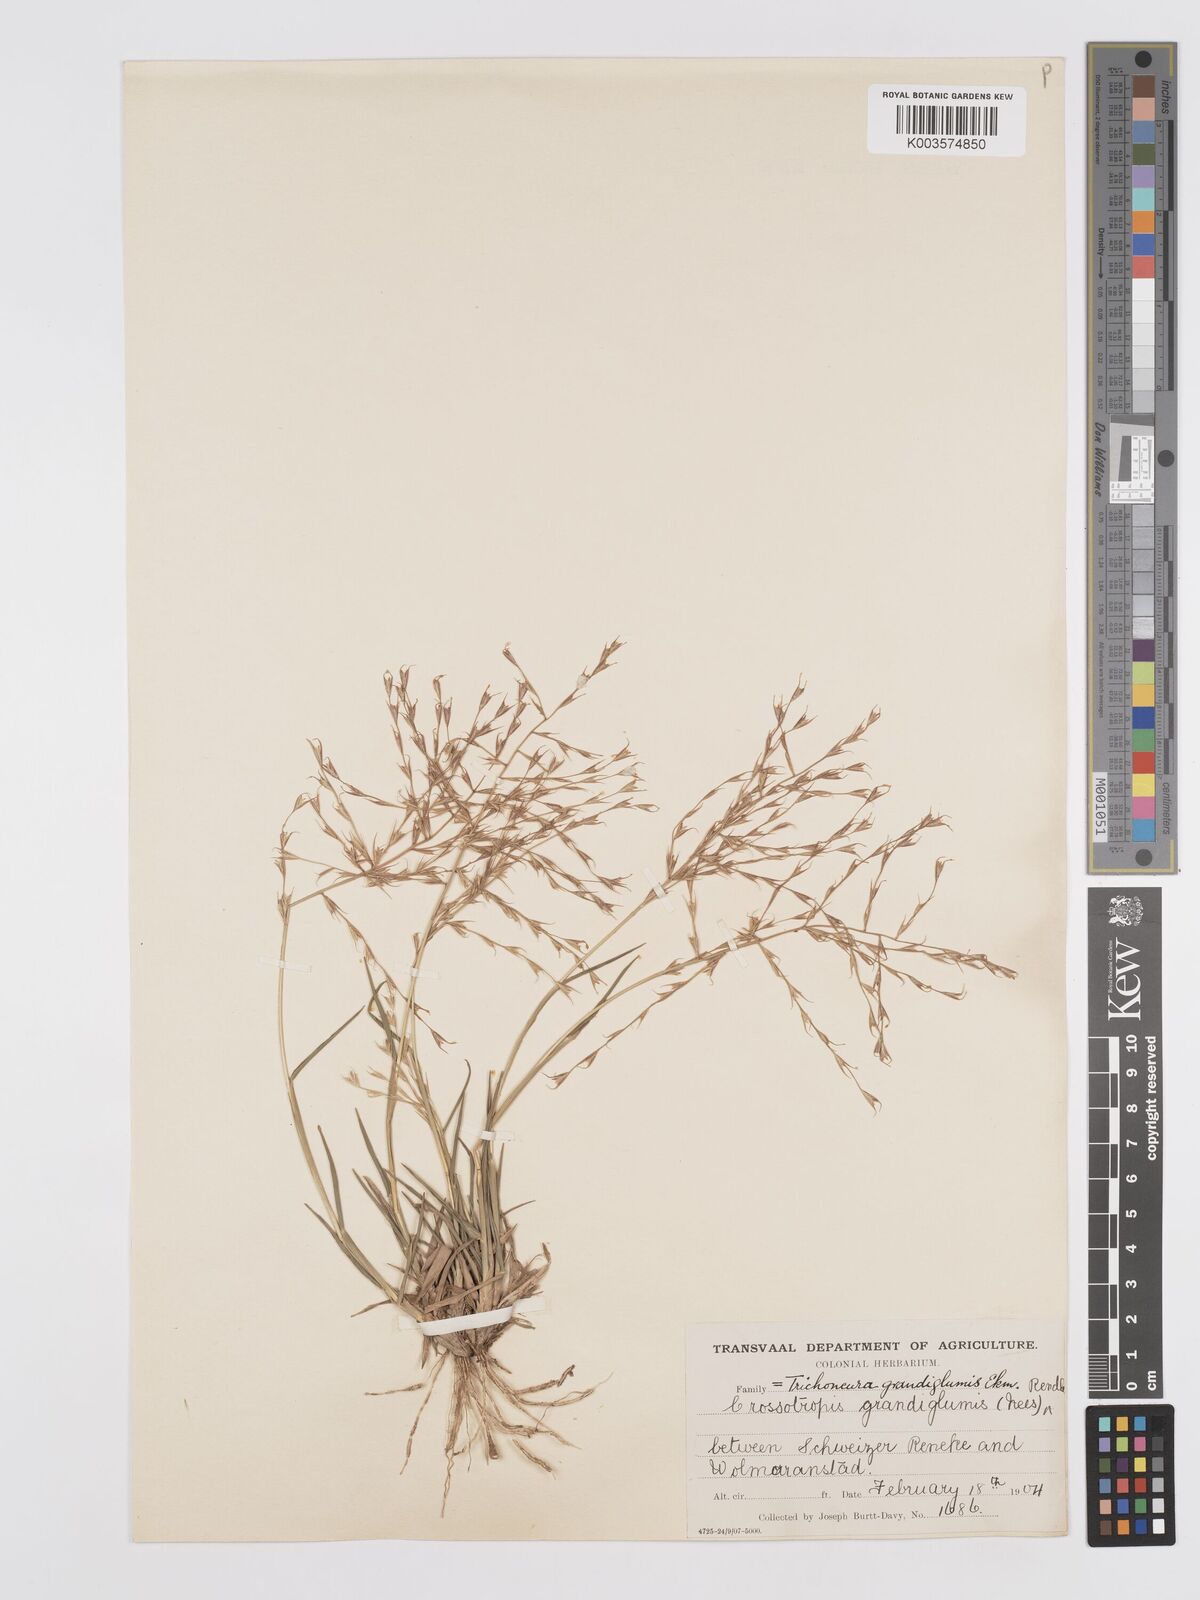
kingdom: Plantae
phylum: Tracheophyta
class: Liliopsida
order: Poales
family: Poaceae
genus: Trichoneura
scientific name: Trichoneura grandiglumis
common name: Rolling grass
